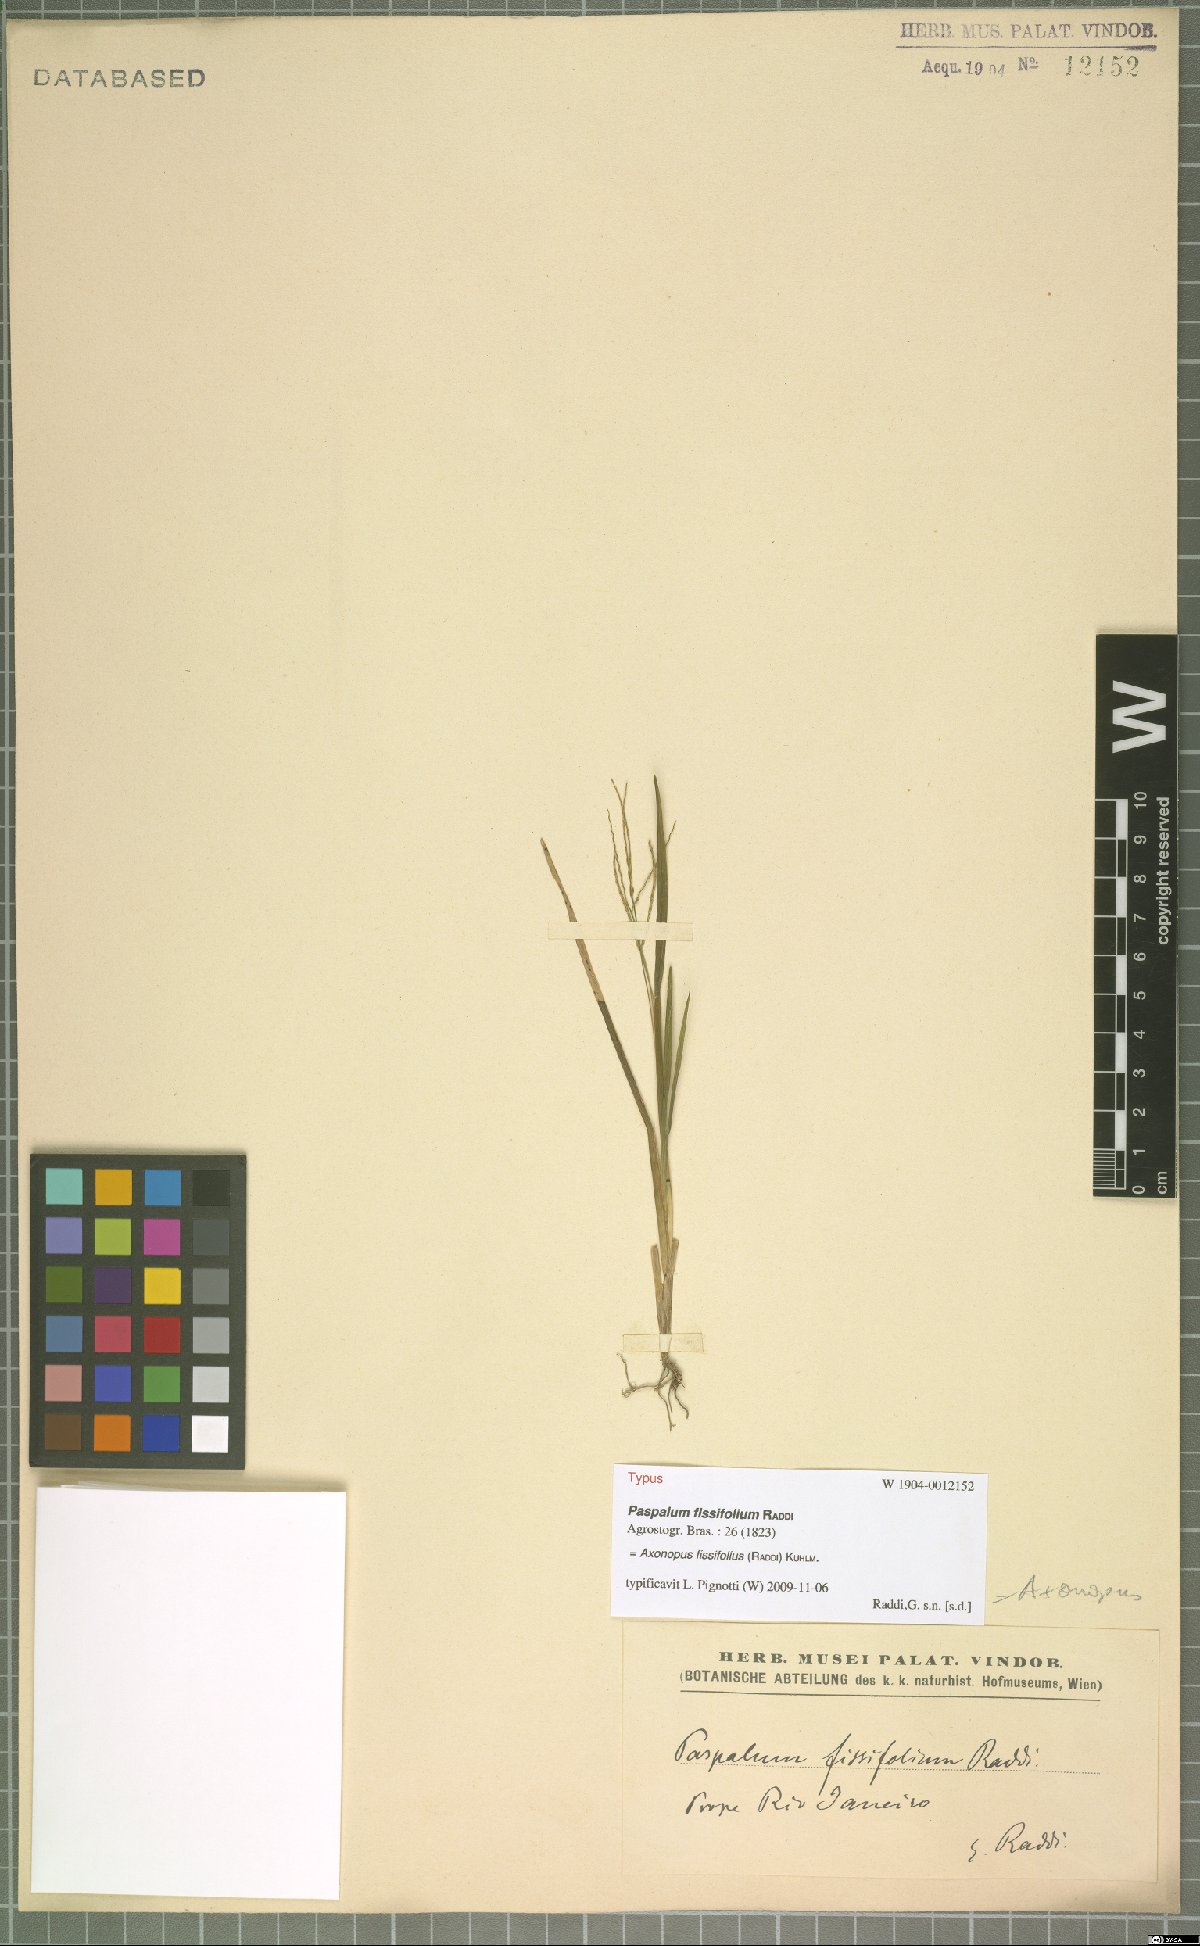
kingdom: Plantae
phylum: Tracheophyta
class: Liliopsida
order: Poales
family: Poaceae
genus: Axonopus
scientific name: Axonopus fissifolius
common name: Common carpetgrass
